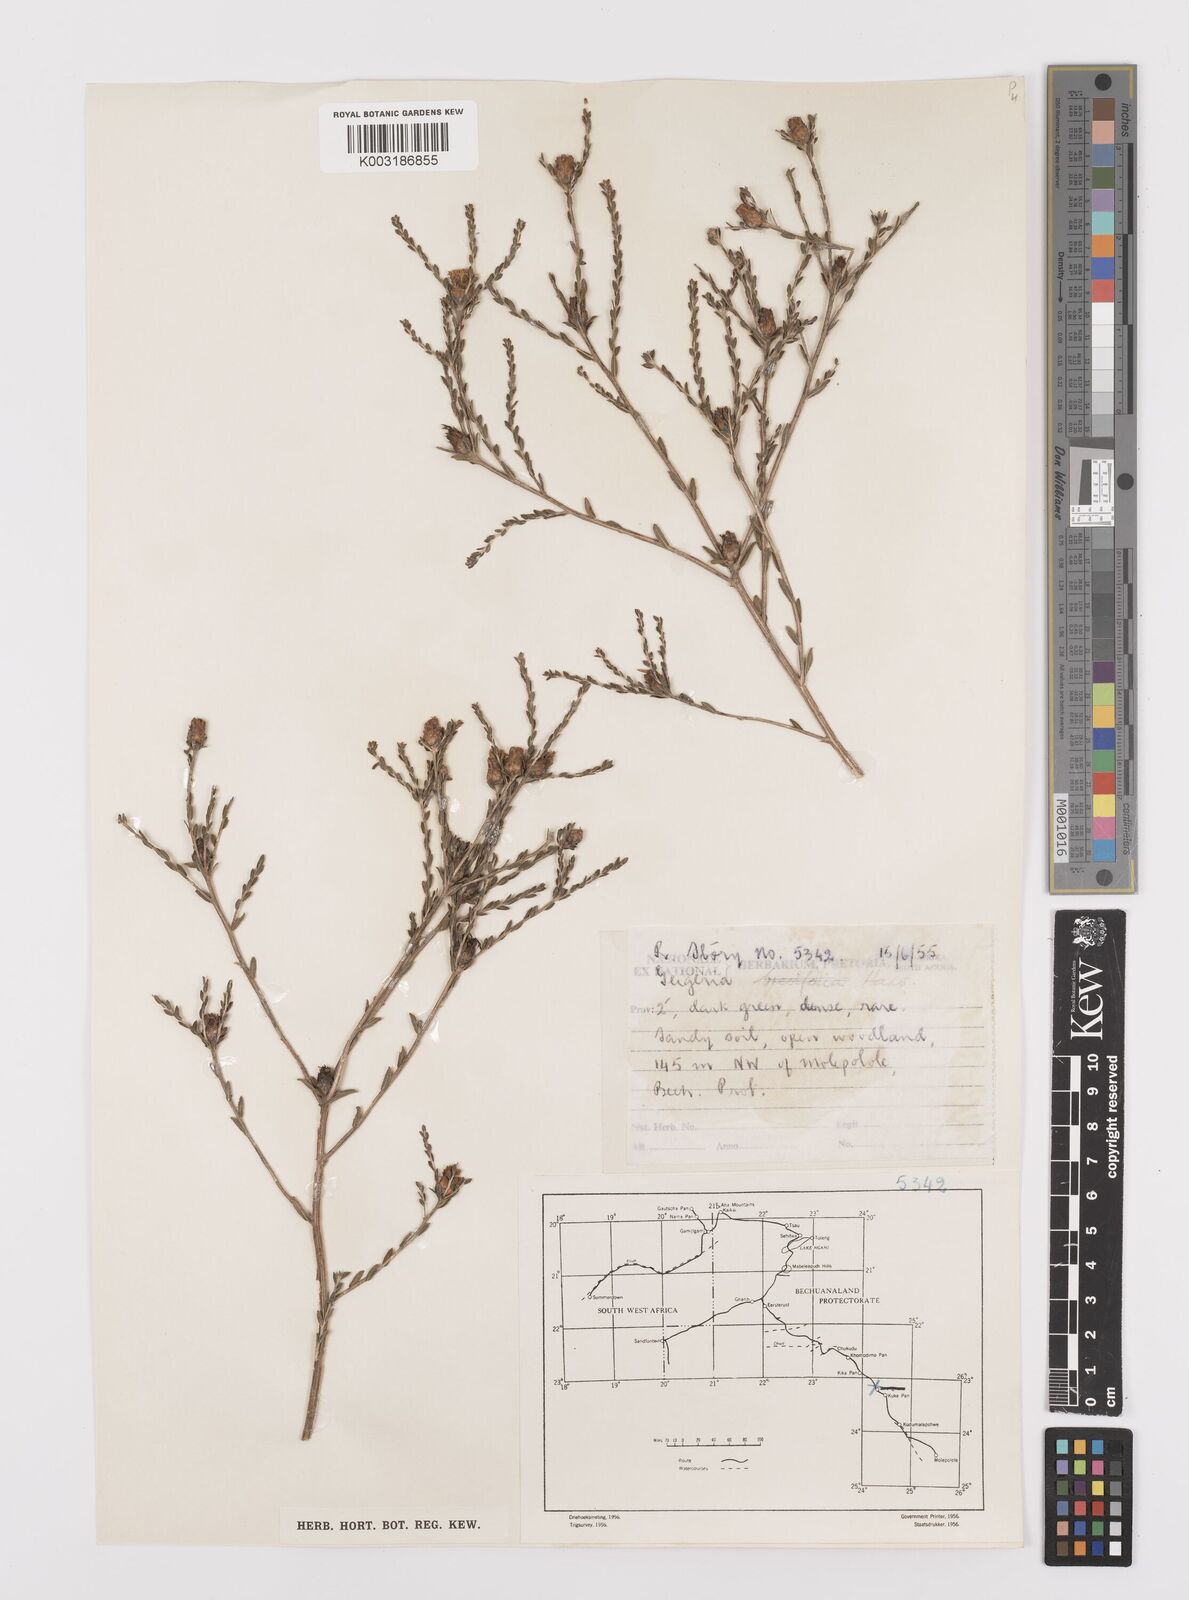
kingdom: Plantae
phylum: Tracheophyta
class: Magnoliopsida
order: Asterales
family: Asteraceae
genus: Geigeria
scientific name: Geigeria brevifolia
